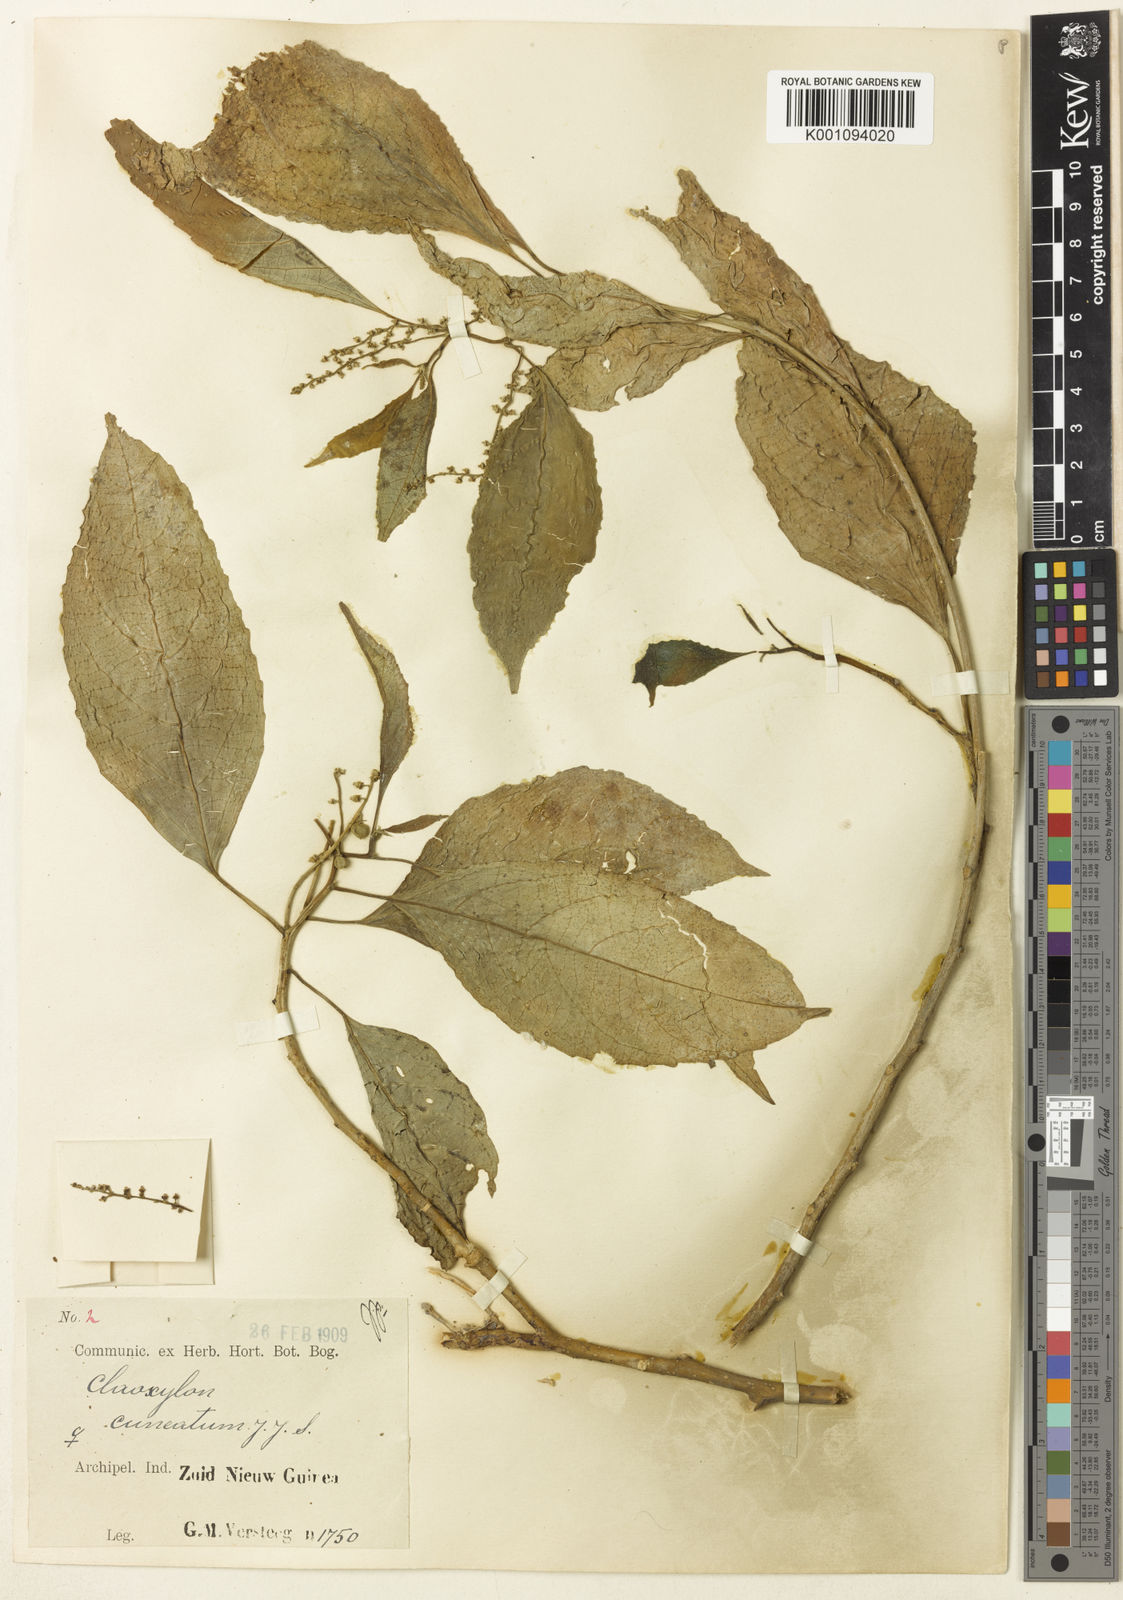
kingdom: Plantae
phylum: Tracheophyta
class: Magnoliopsida
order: Malpighiales
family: Euphorbiaceae
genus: Claoxylon
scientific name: Claoxylon cuneatum
